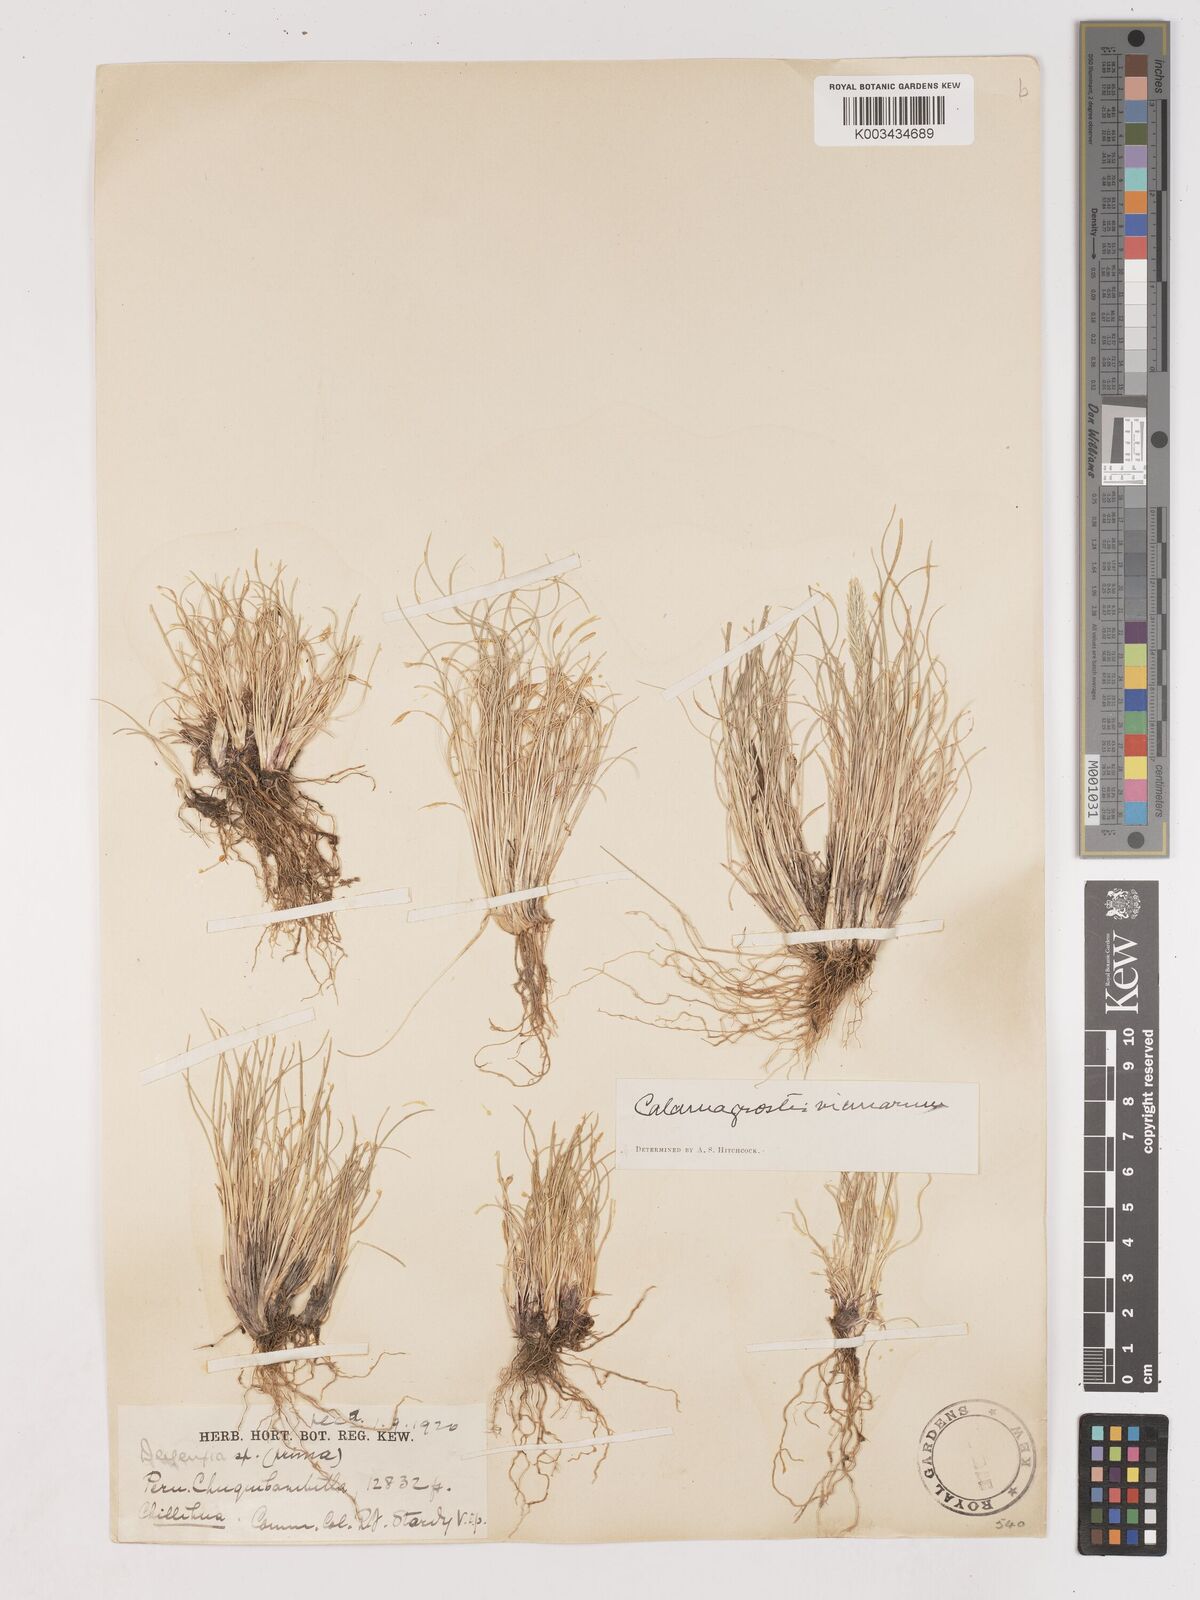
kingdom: Plantae
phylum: Tracheophyta
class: Liliopsida
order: Poales
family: Poaceae
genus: Cinnagrostis
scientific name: Cinnagrostis vicunarum
